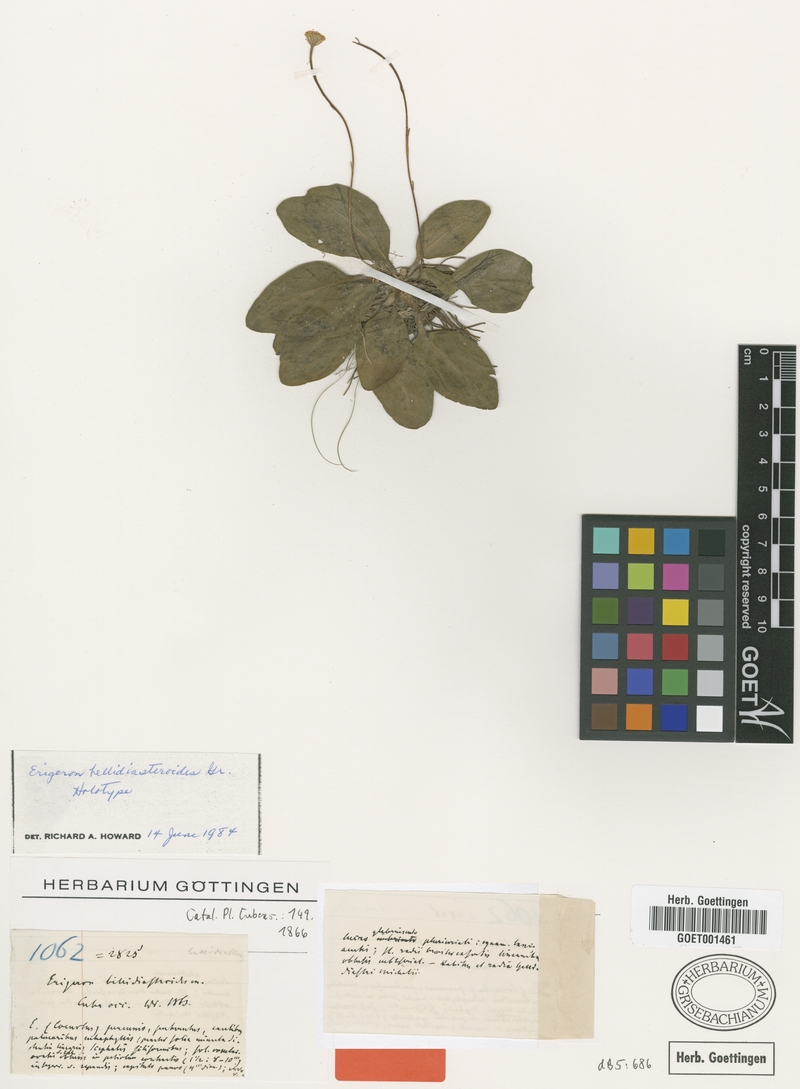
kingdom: Plantae
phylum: Tracheophyta
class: Magnoliopsida
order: Asterales
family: Asteraceae
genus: Erigeron
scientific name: Erigeron bellidiastroides
